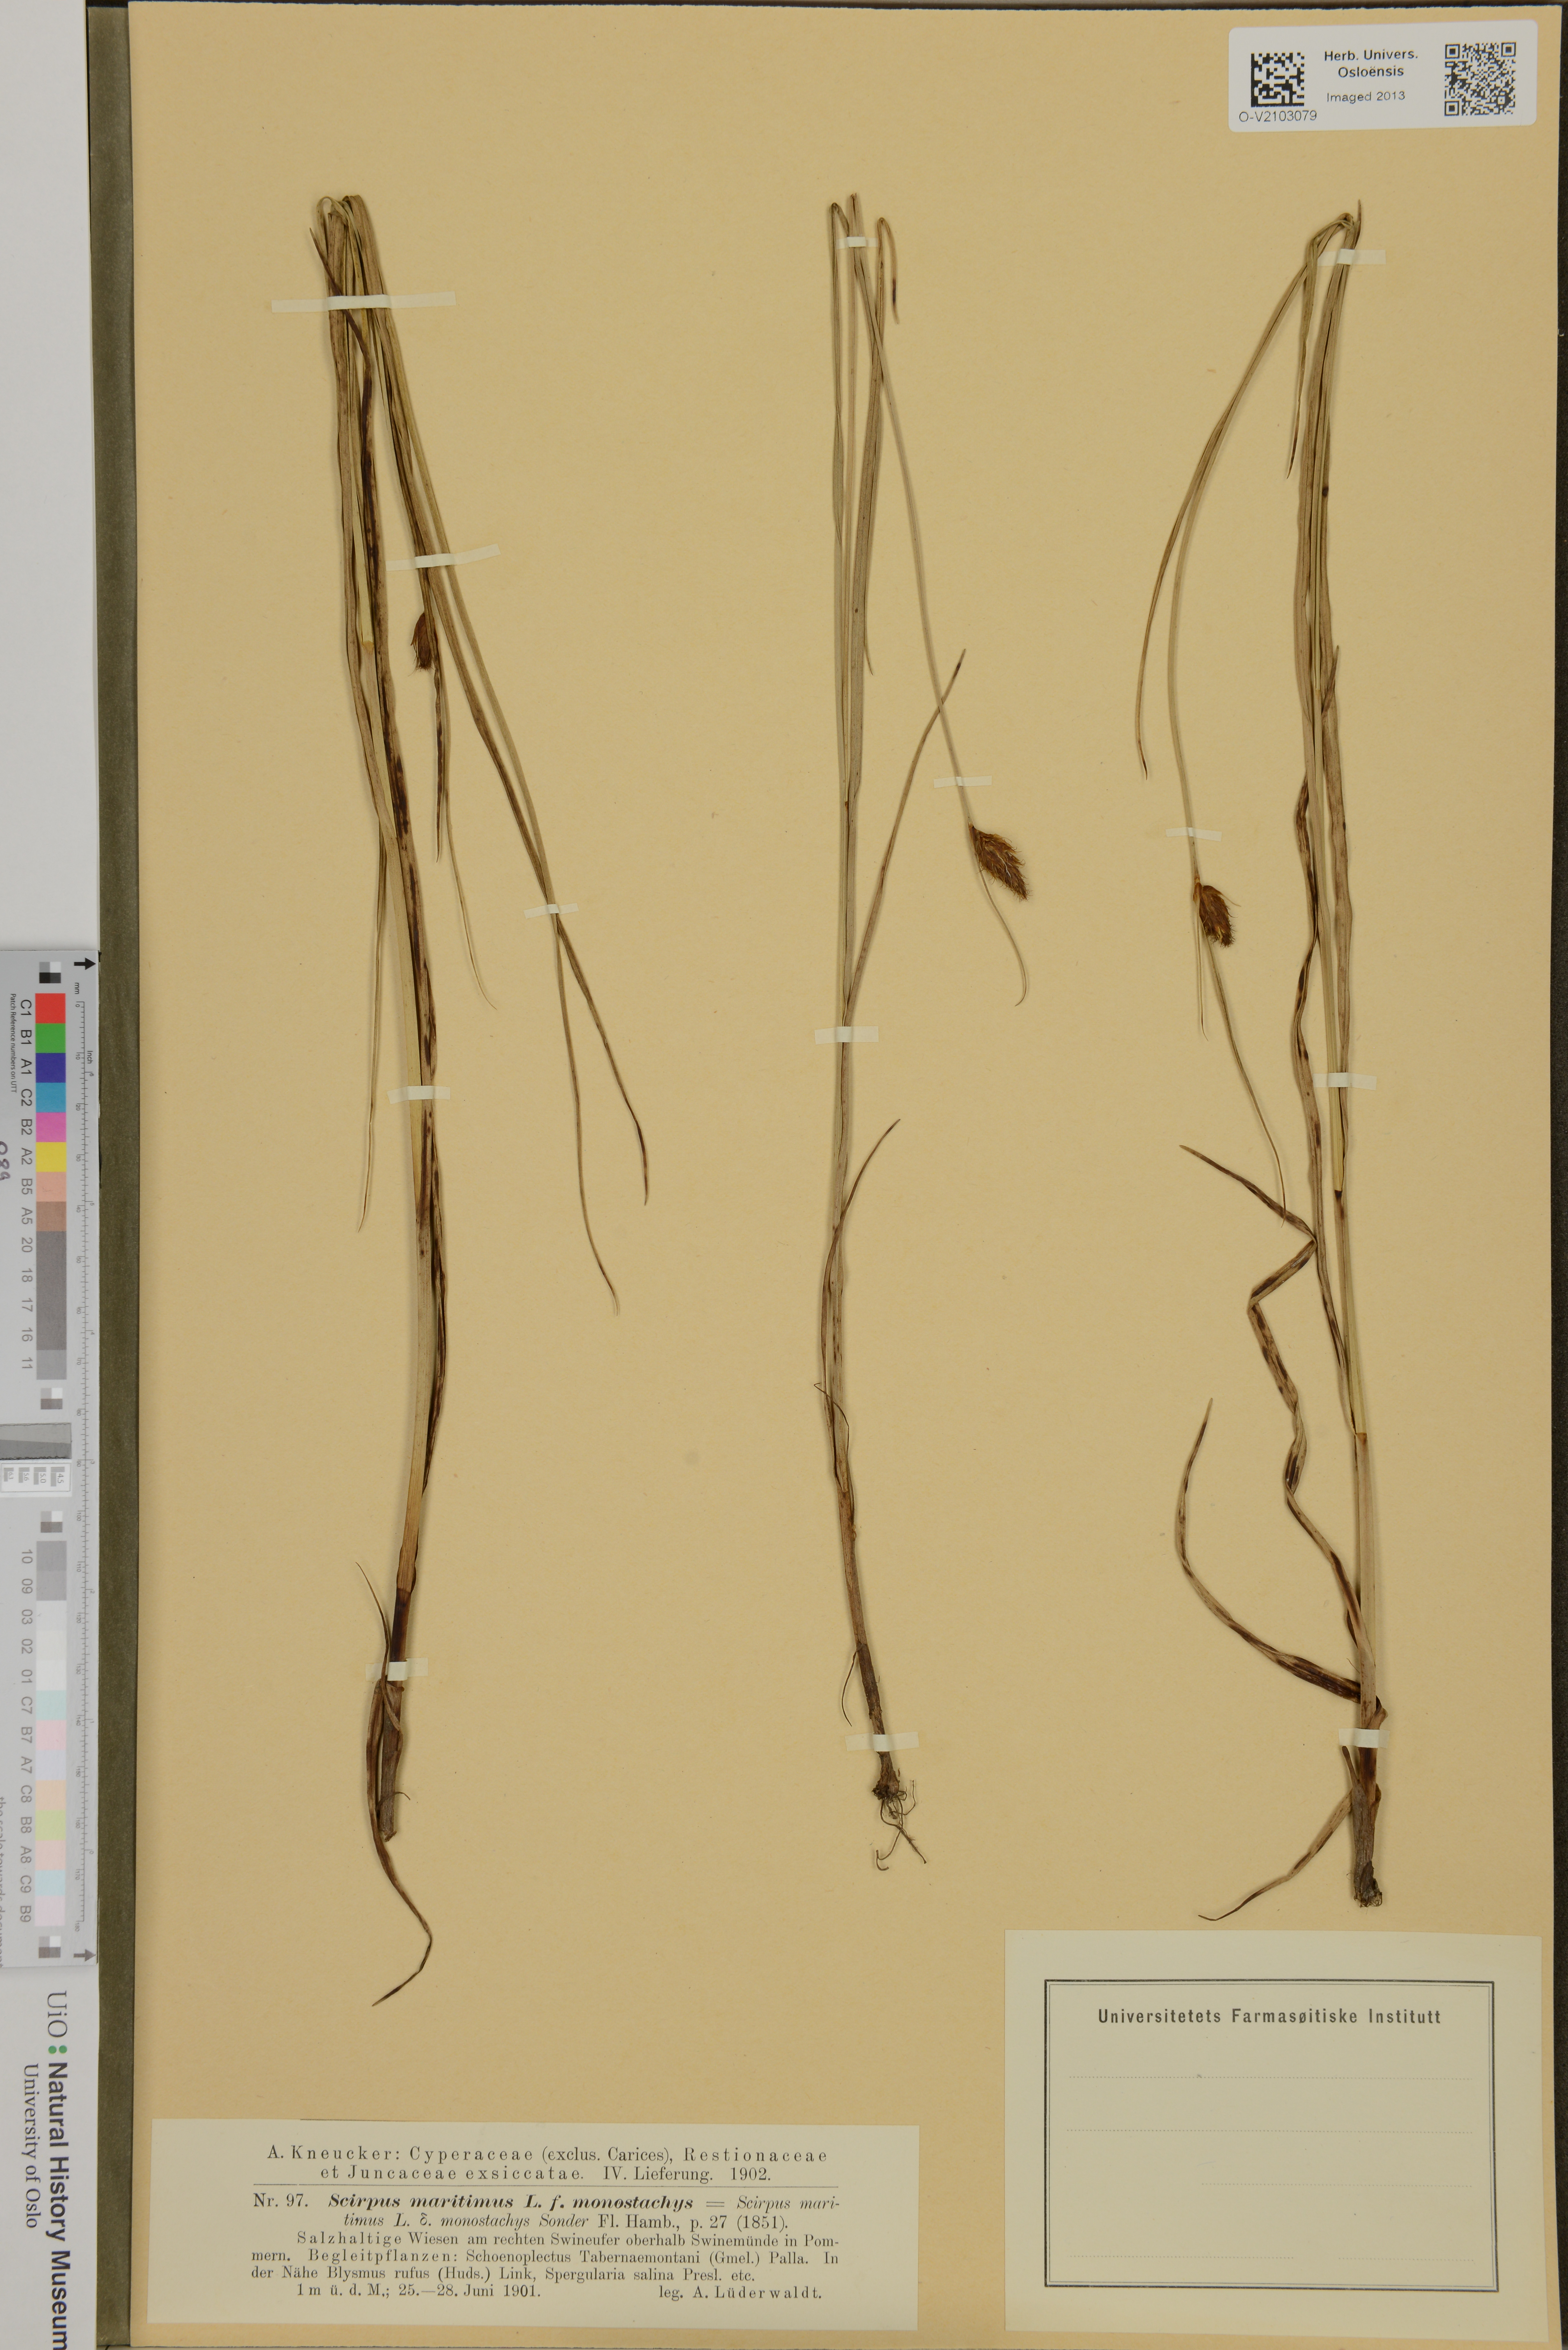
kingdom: Plantae
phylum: Tracheophyta
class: Liliopsida
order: Poales
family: Cyperaceae
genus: Bolboschoenus
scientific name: Bolboschoenus maritimus
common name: Sea club-rush
